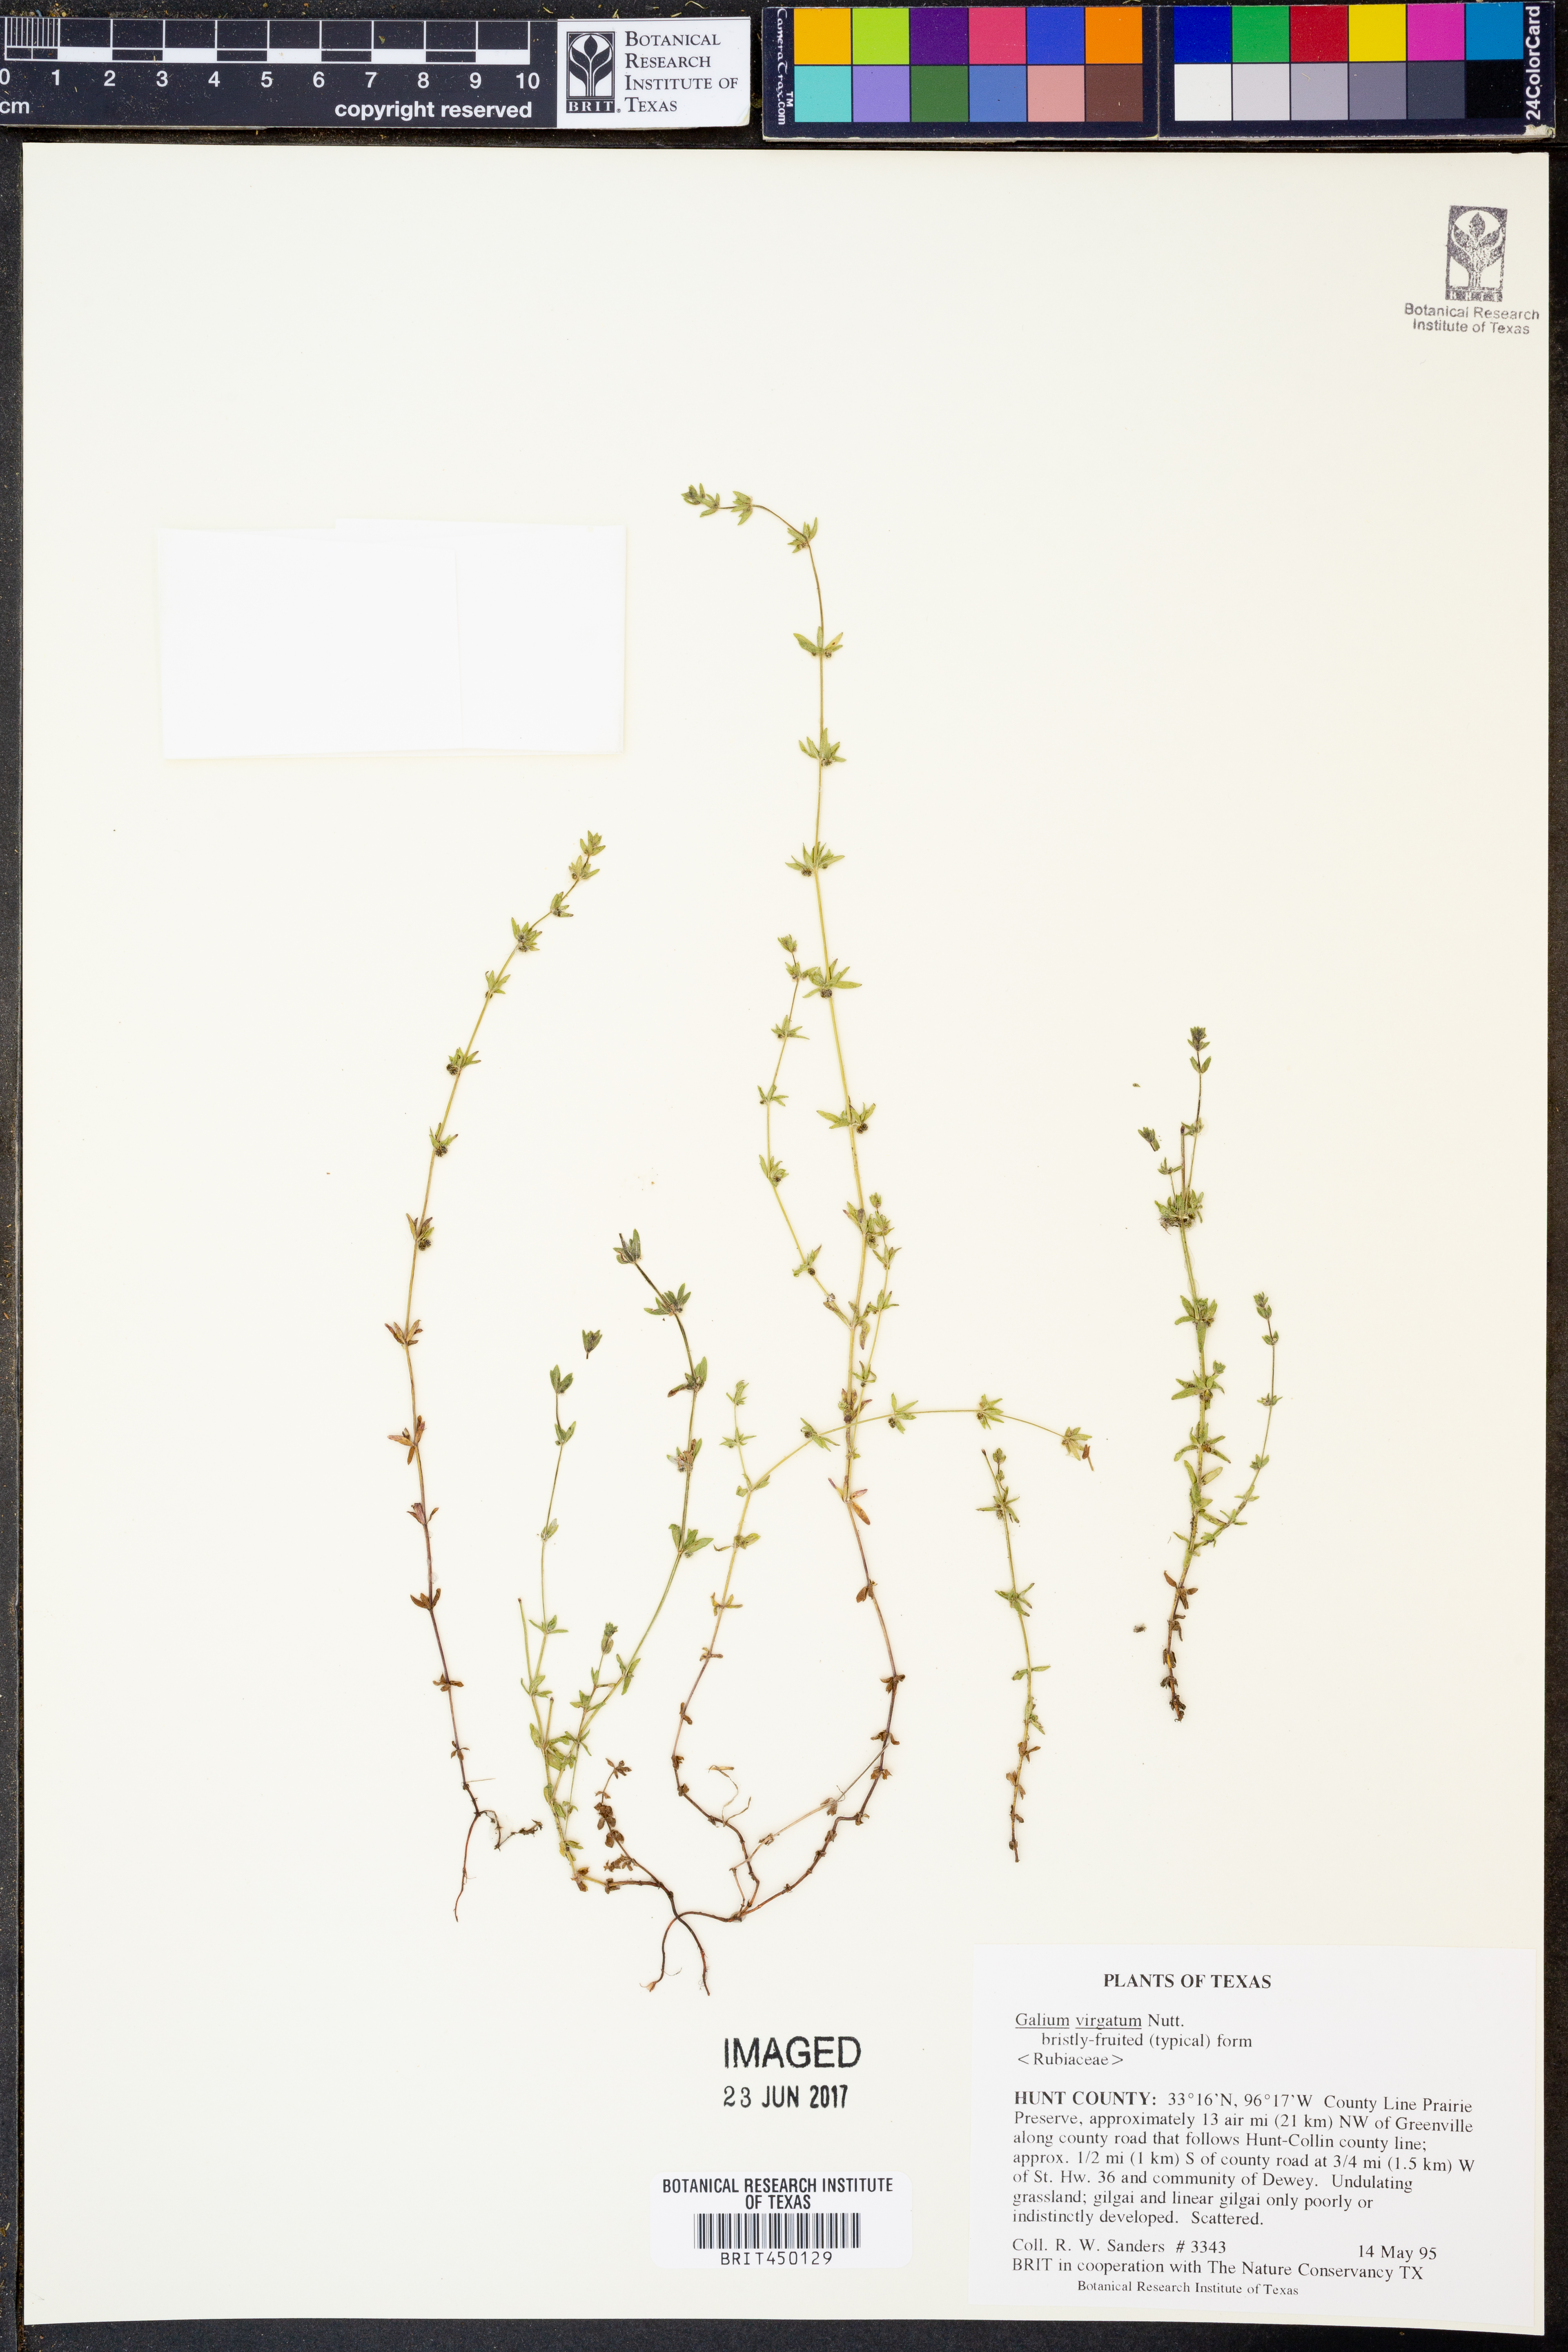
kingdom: Plantae
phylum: Tracheophyta
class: Magnoliopsida
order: Gentianales
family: Rubiaceae
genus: Galium
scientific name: Galium virgatum
